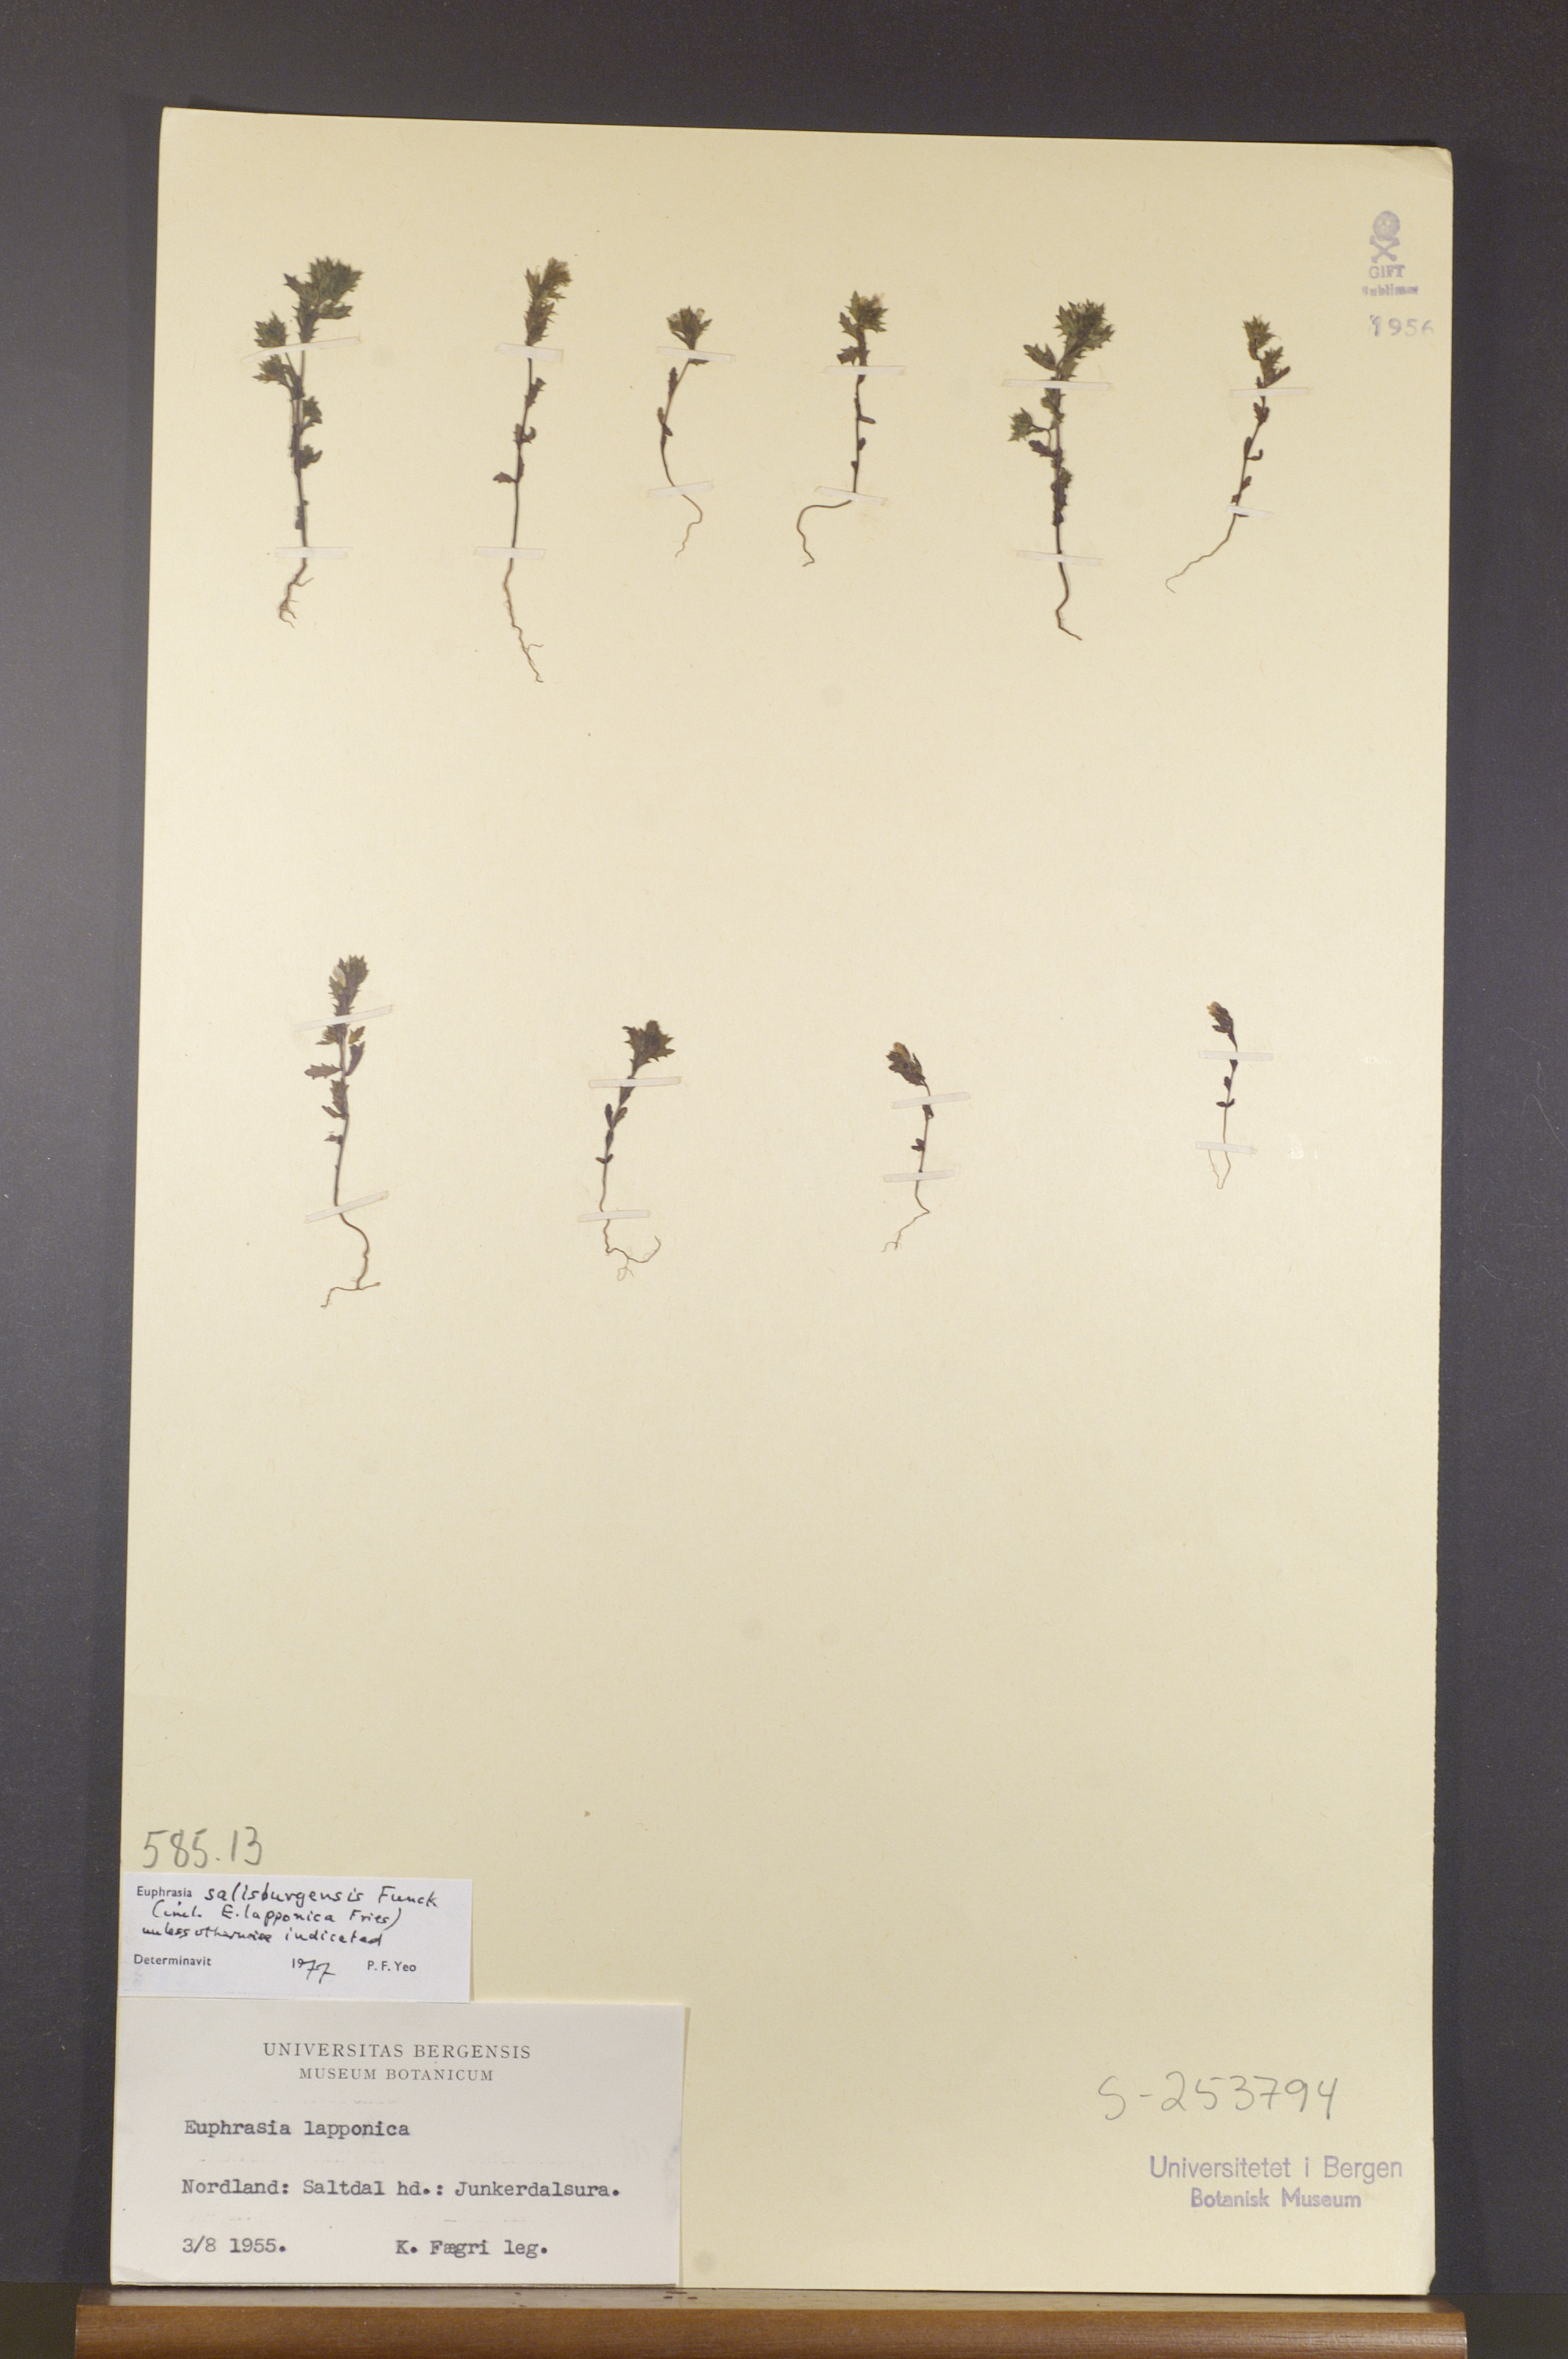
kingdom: Plantae
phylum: Tracheophyta
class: Magnoliopsida
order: Lamiales
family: Orobanchaceae
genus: Euphrasia
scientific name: Euphrasia salisburgensis
